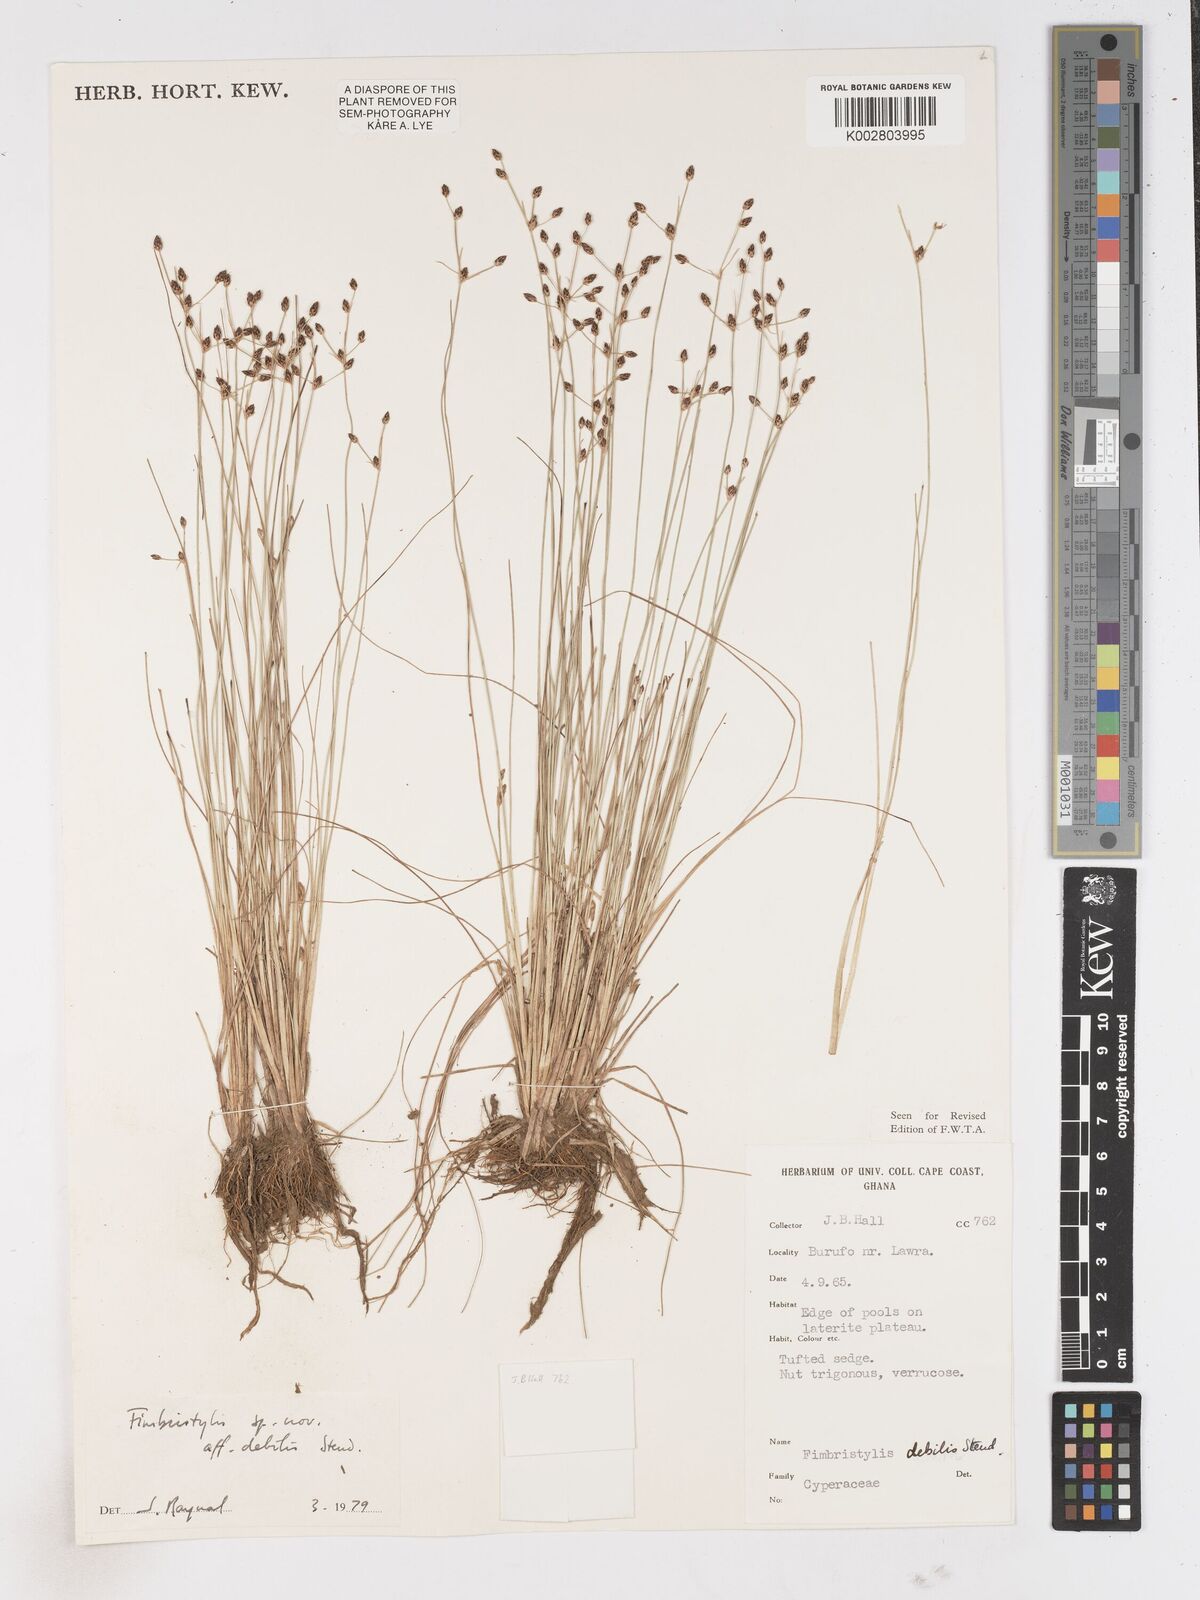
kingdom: Plantae
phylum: Tracheophyta
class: Liliopsida
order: Poales
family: Cyperaceae
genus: Fimbristylis
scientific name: Fimbristylis debilis
